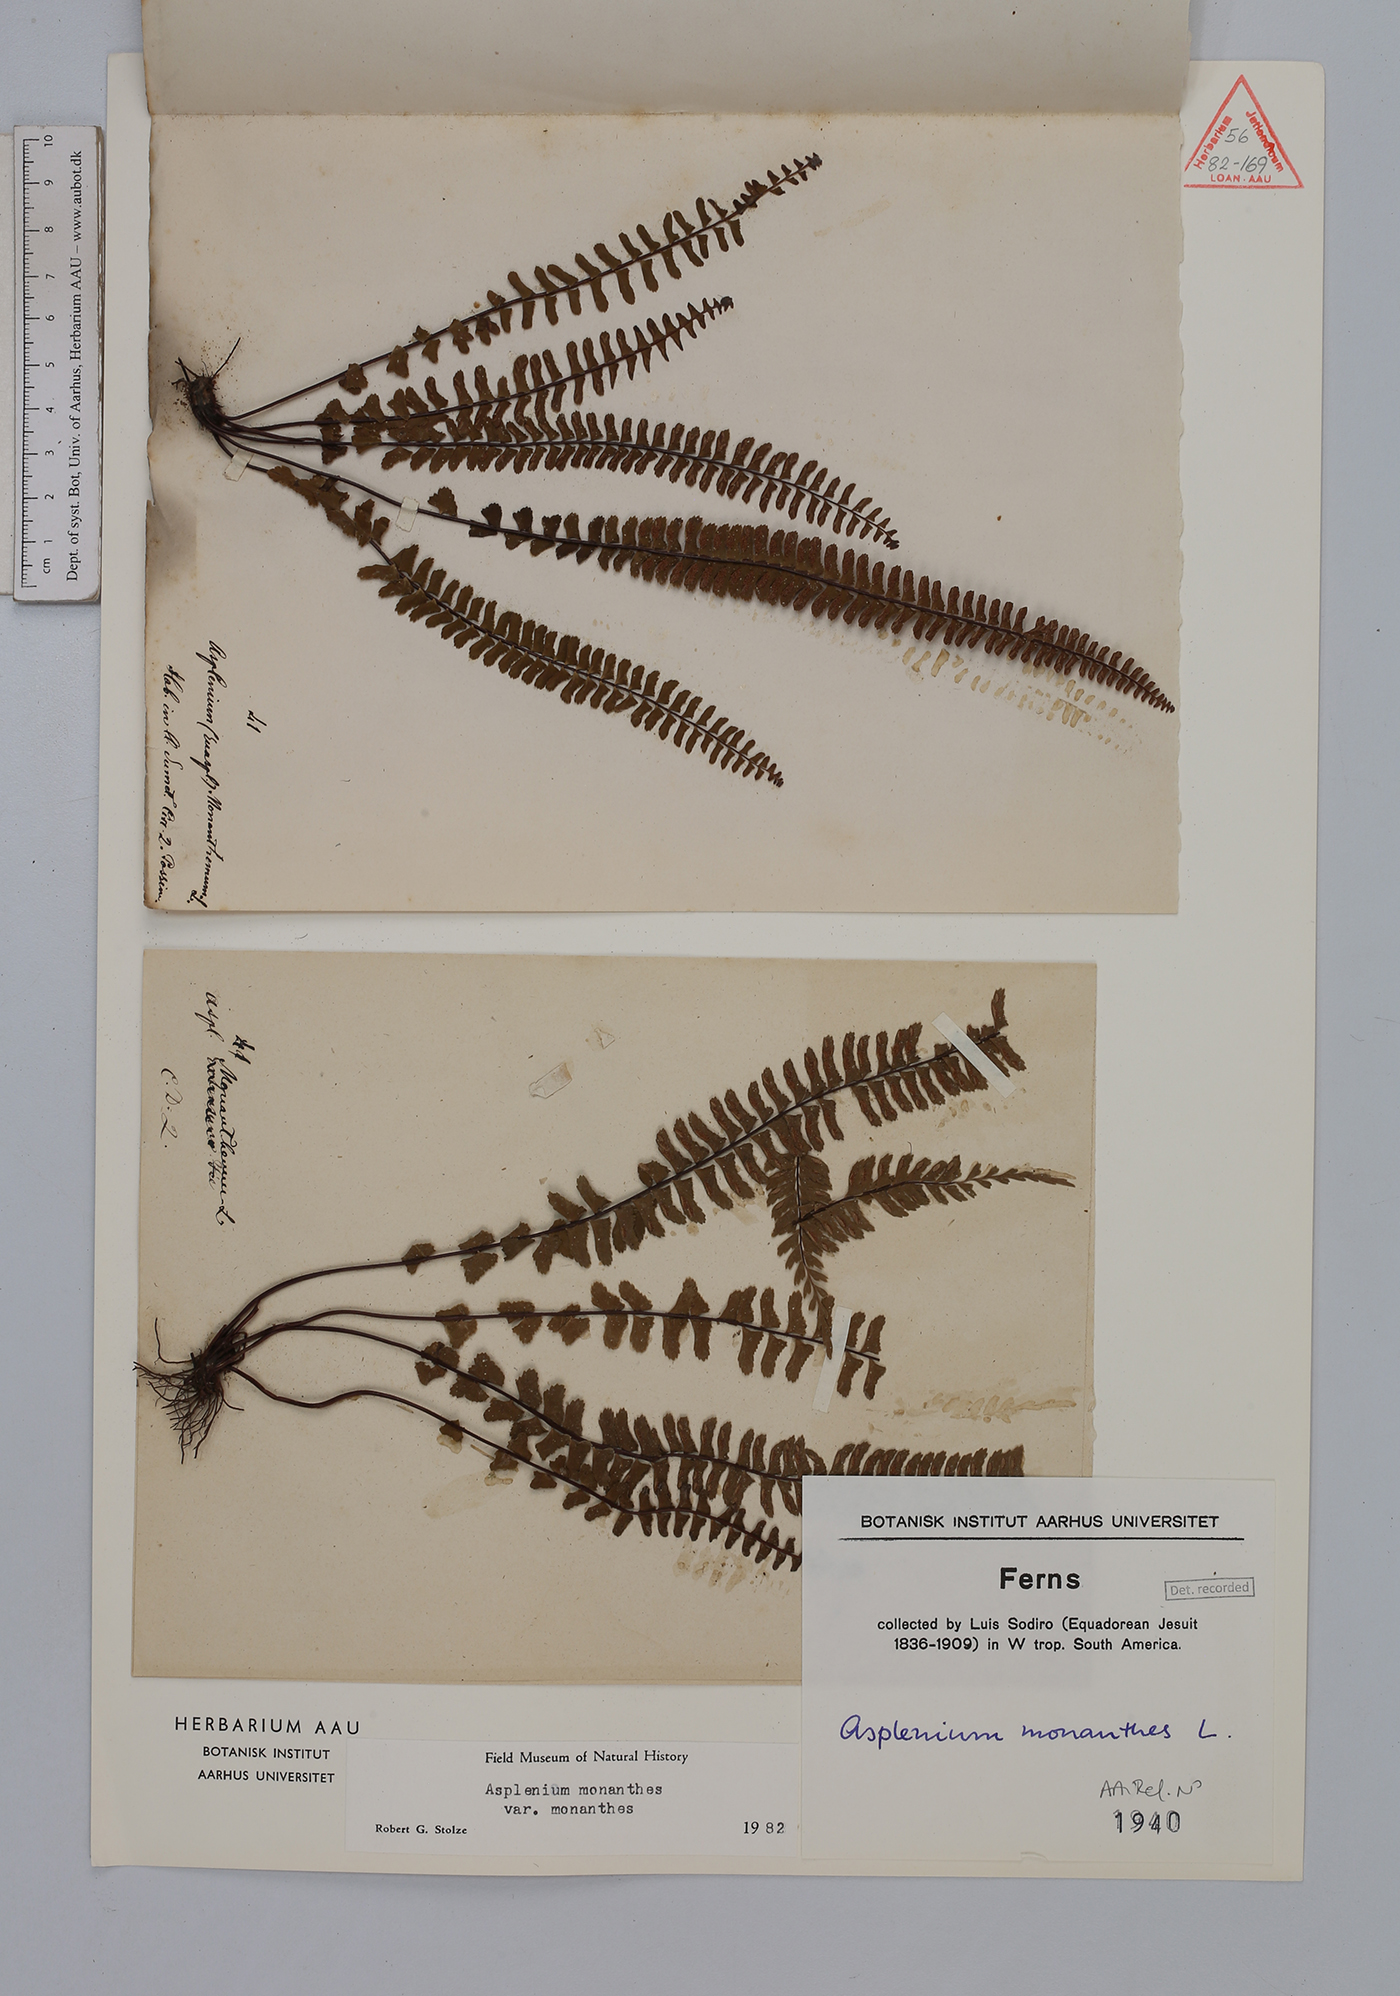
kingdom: Plantae
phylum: Tracheophyta
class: Polypodiopsida
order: Polypodiales
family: Aspleniaceae
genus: Asplenium
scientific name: Asplenium monanthes
